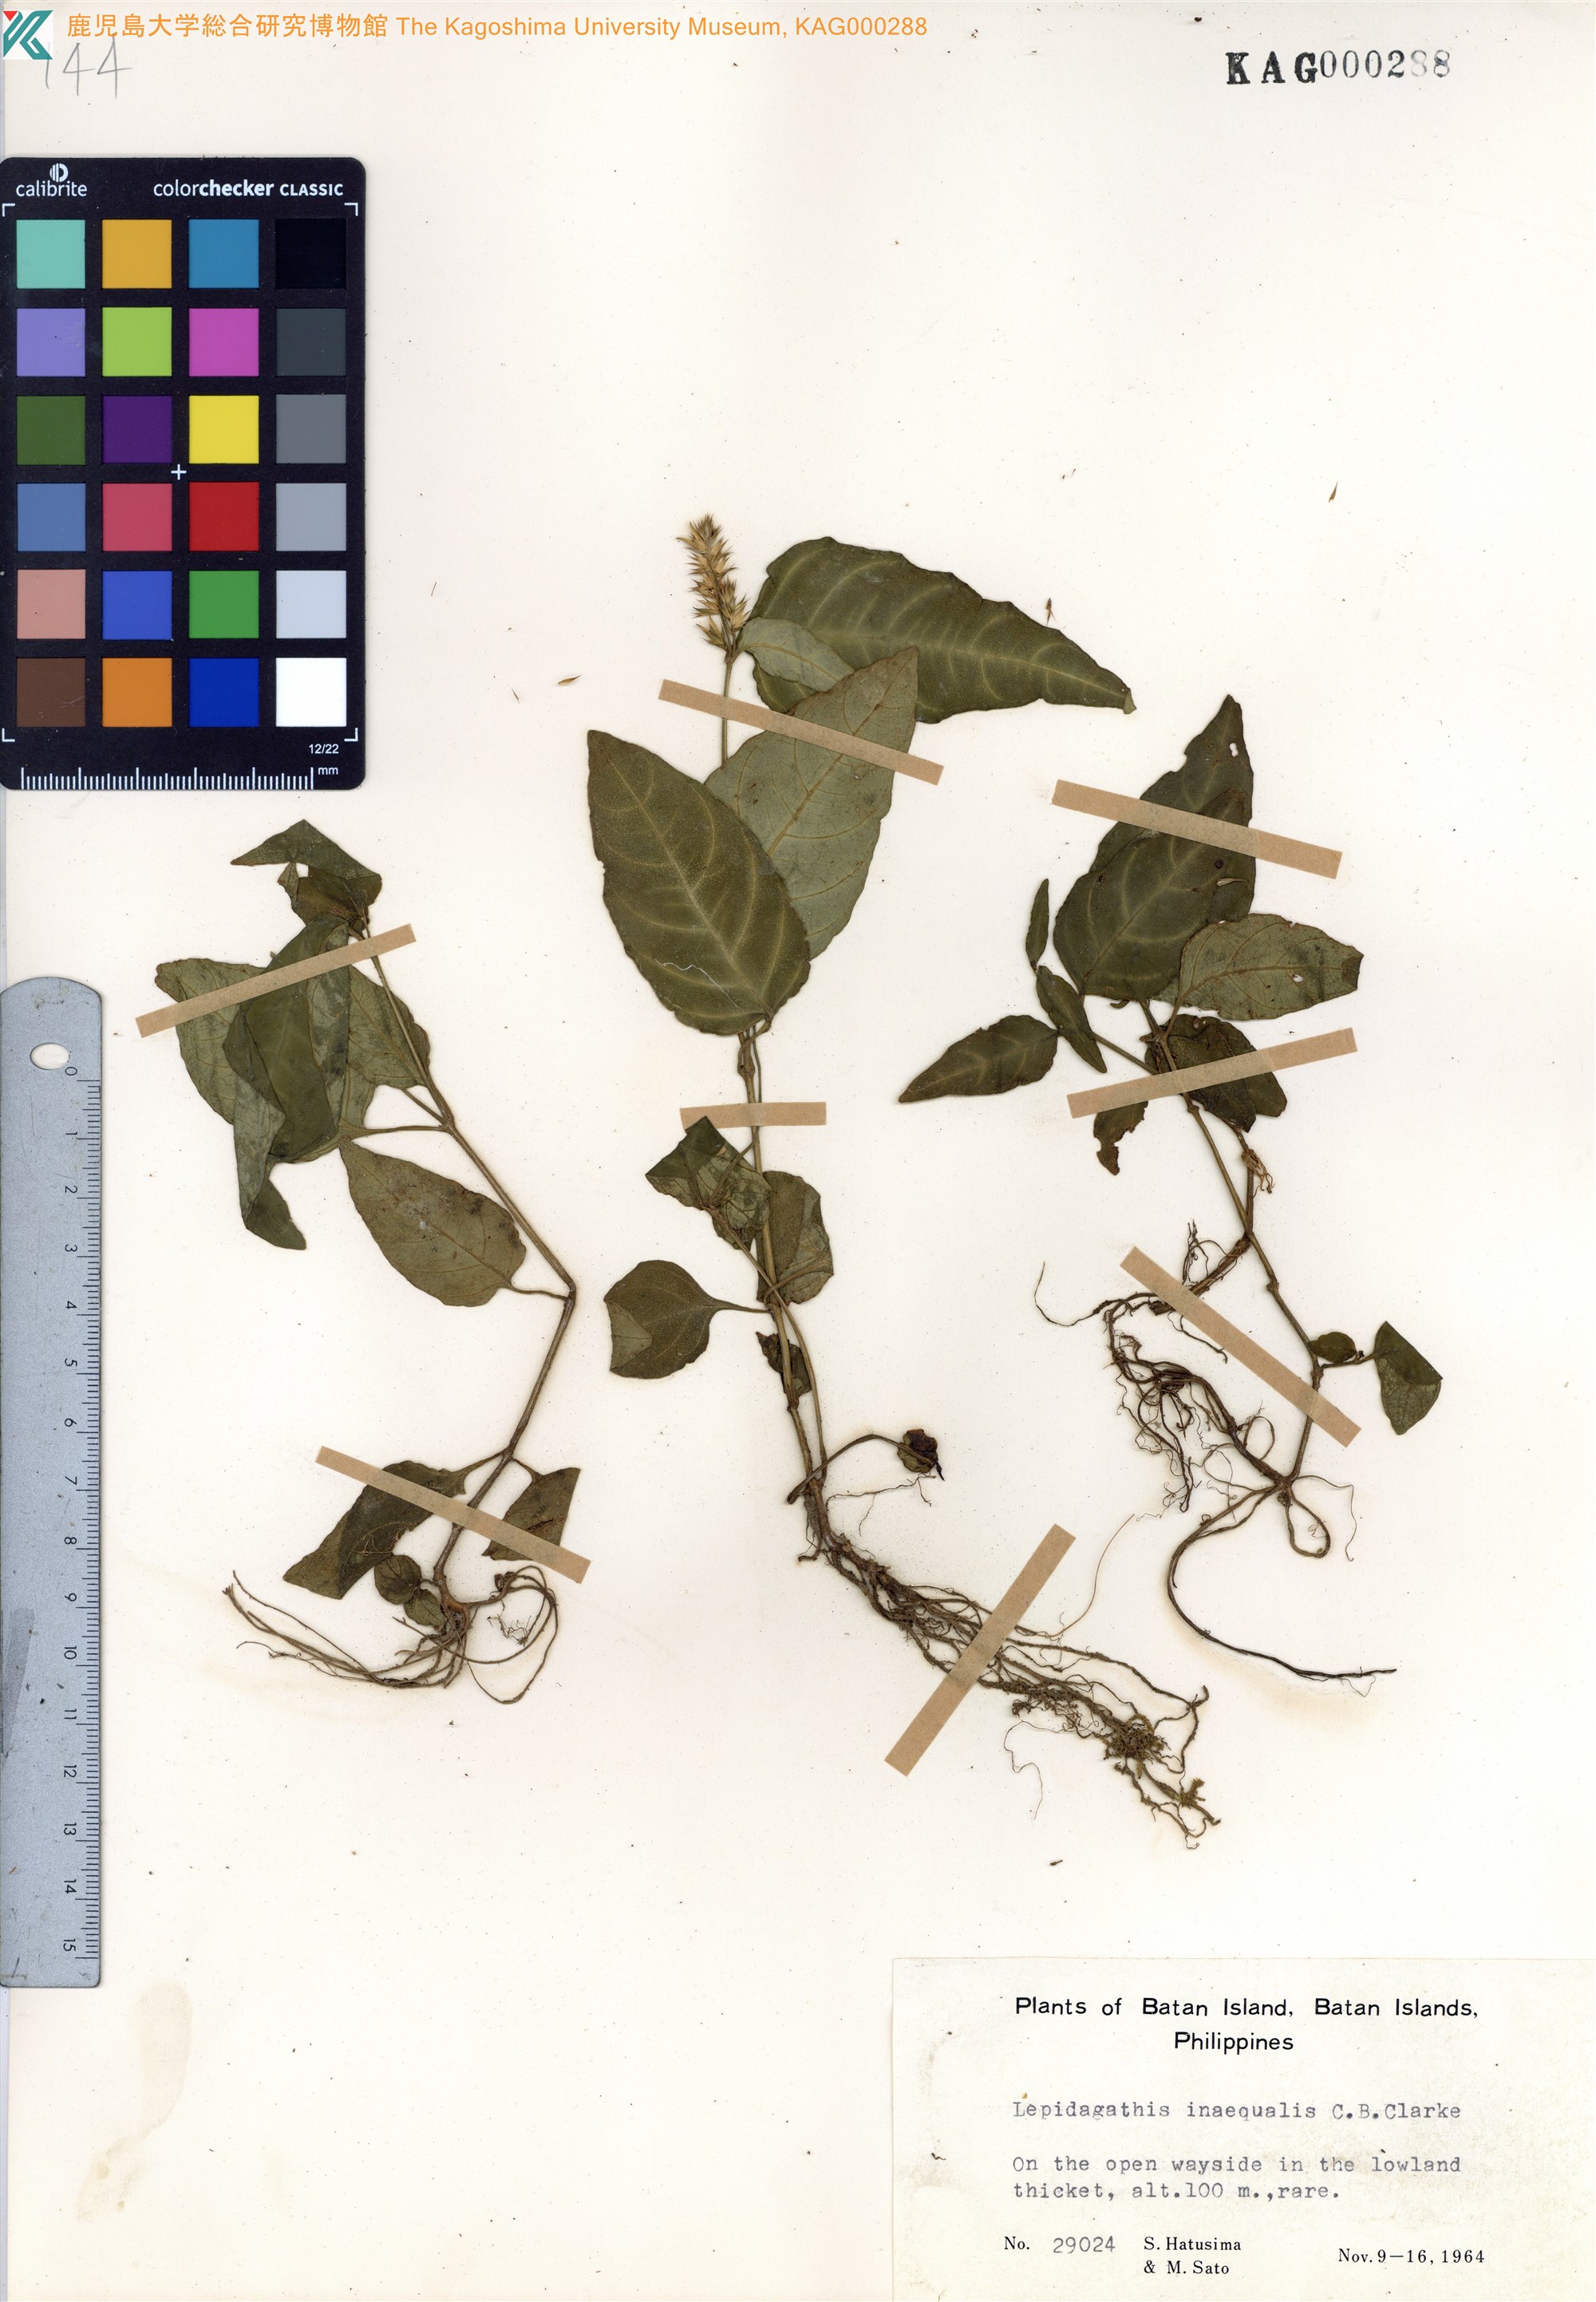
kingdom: Plantae
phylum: Tracheophyta
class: Magnoliopsida
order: Lamiales
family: Acanthaceae
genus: Lepidagathis
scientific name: Lepidagathis inaequalis
